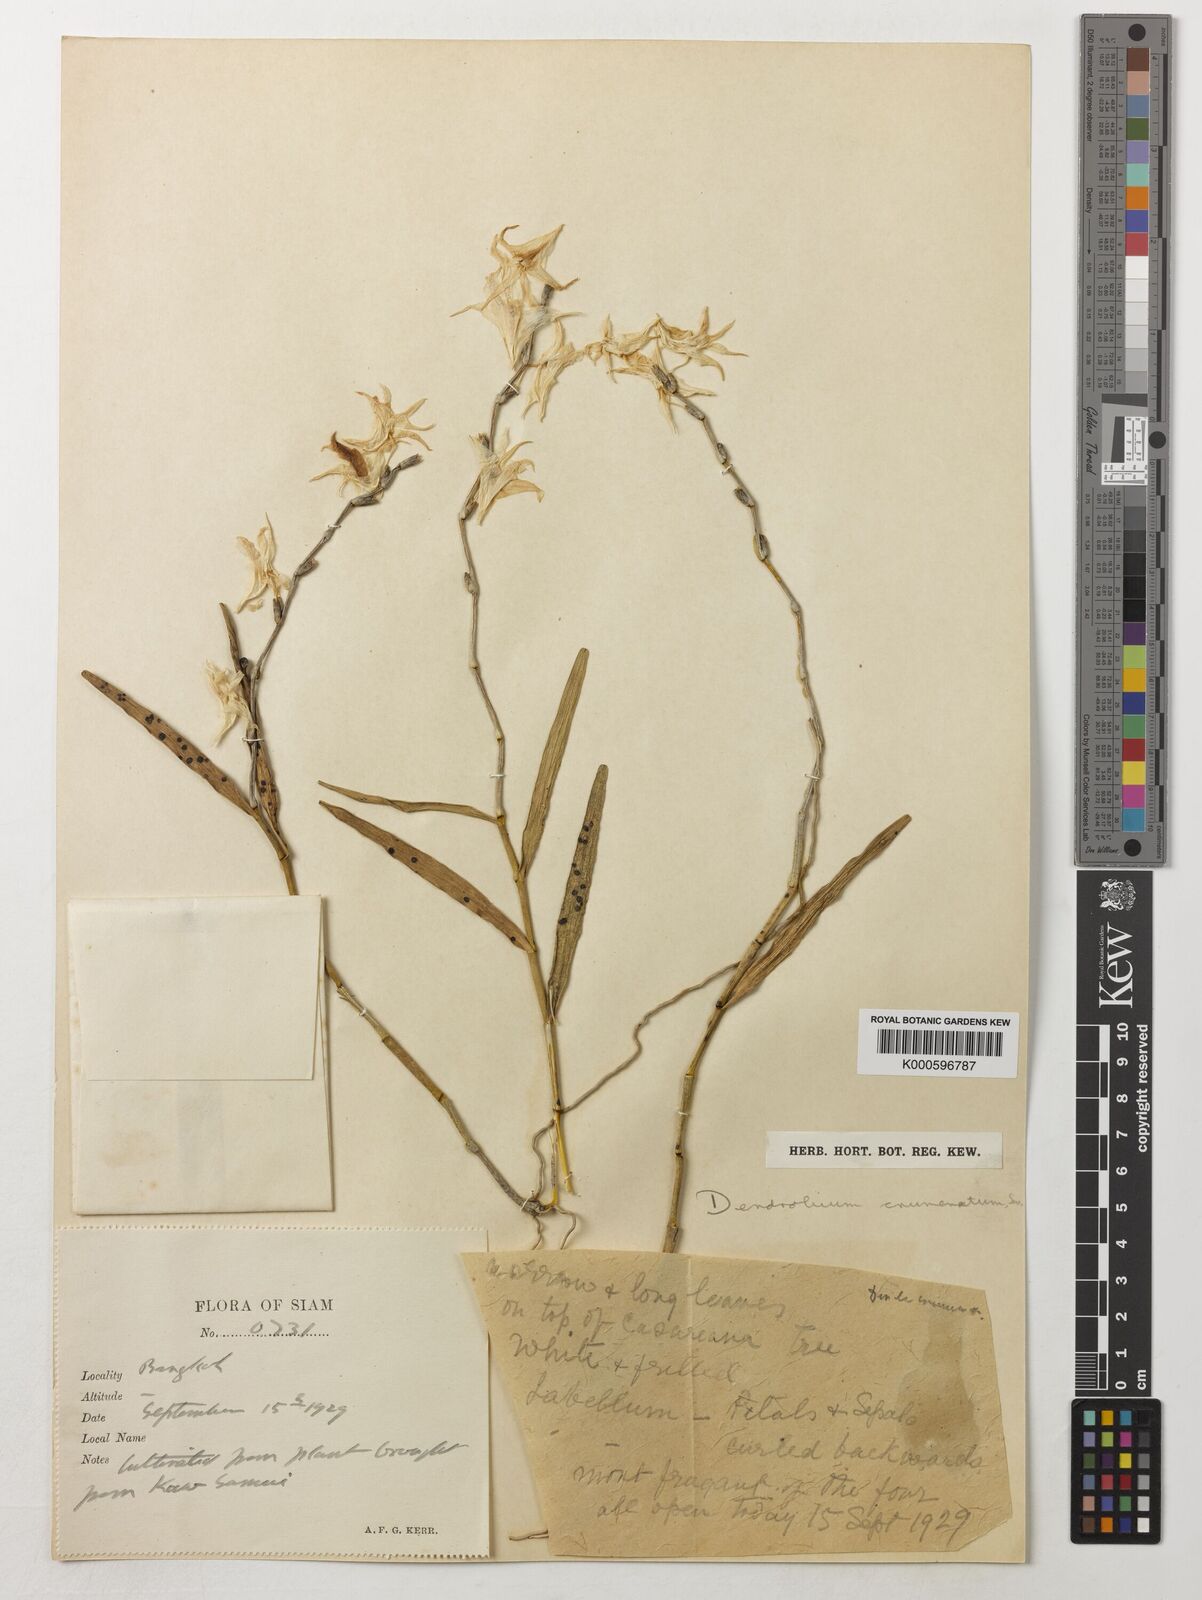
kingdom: Plantae
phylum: Tracheophyta
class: Liliopsida
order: Asparagales
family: Orchidaceae
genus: Dendrobium
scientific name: Dendrobium crumenatum
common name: Orchid
